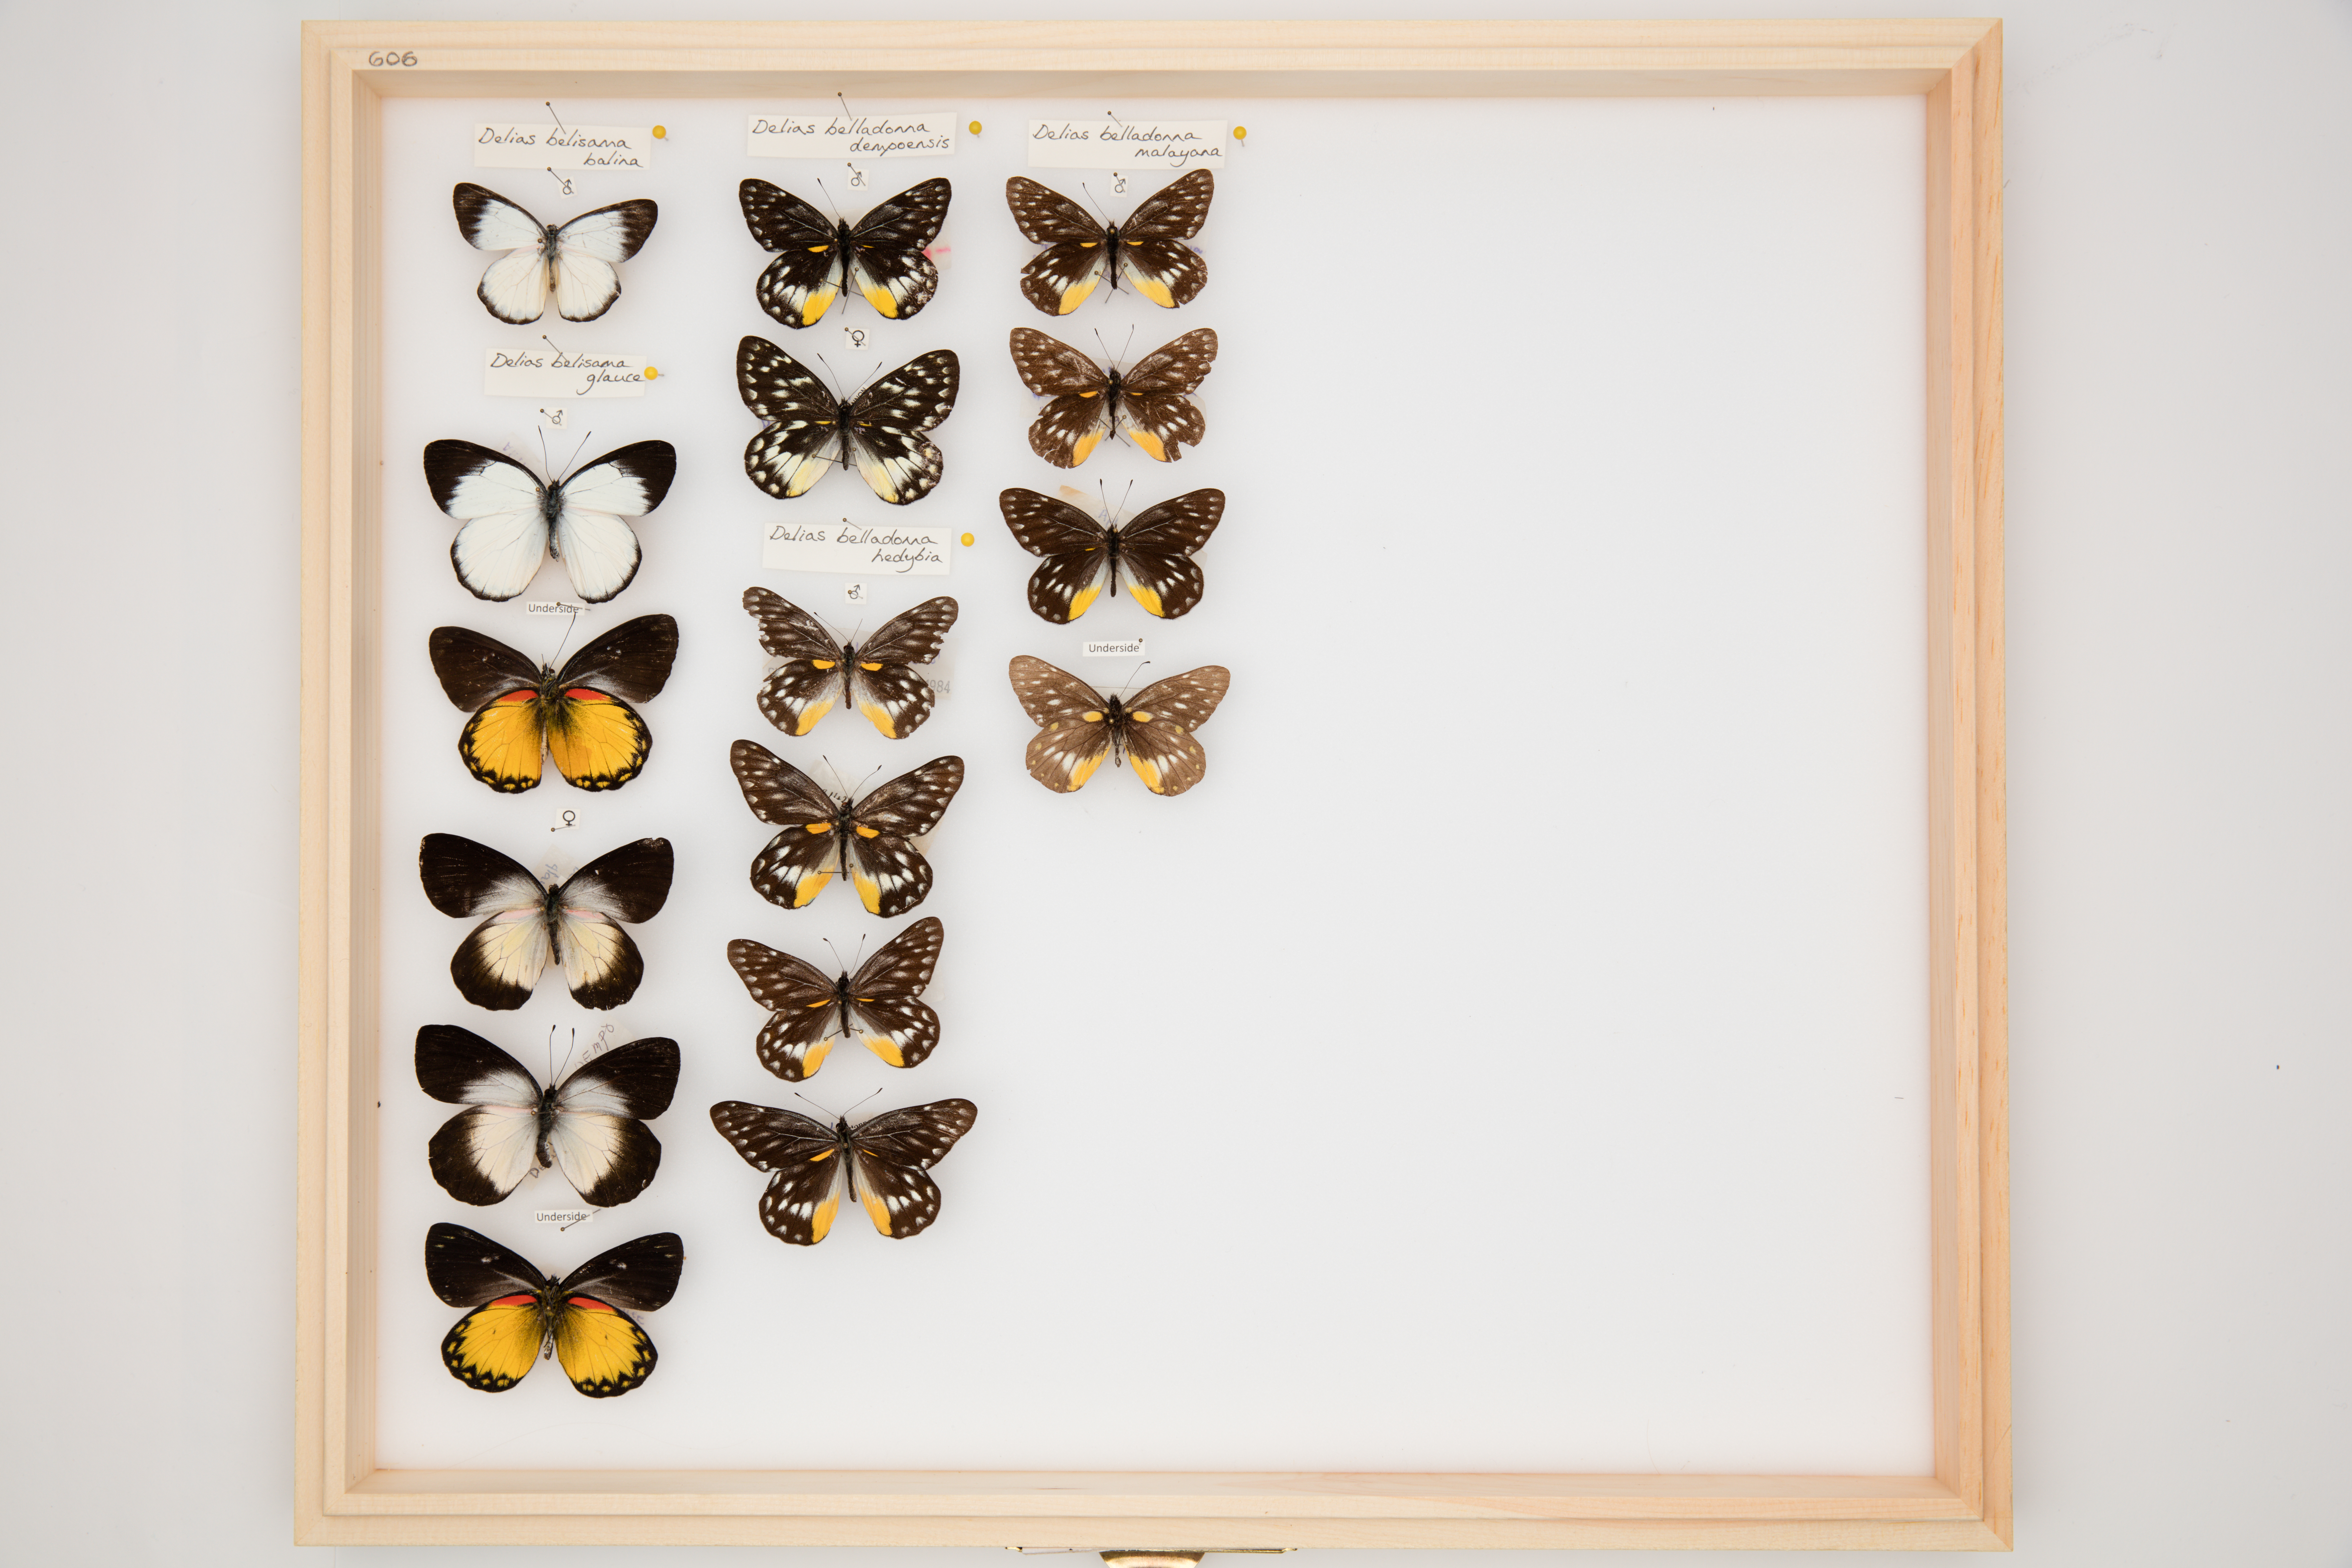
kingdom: Animalia
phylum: Arthropoda
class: Insecta
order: Lepidoptera
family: Pieridae
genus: Delias
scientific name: Delias belladonna
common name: Hill jezebel
